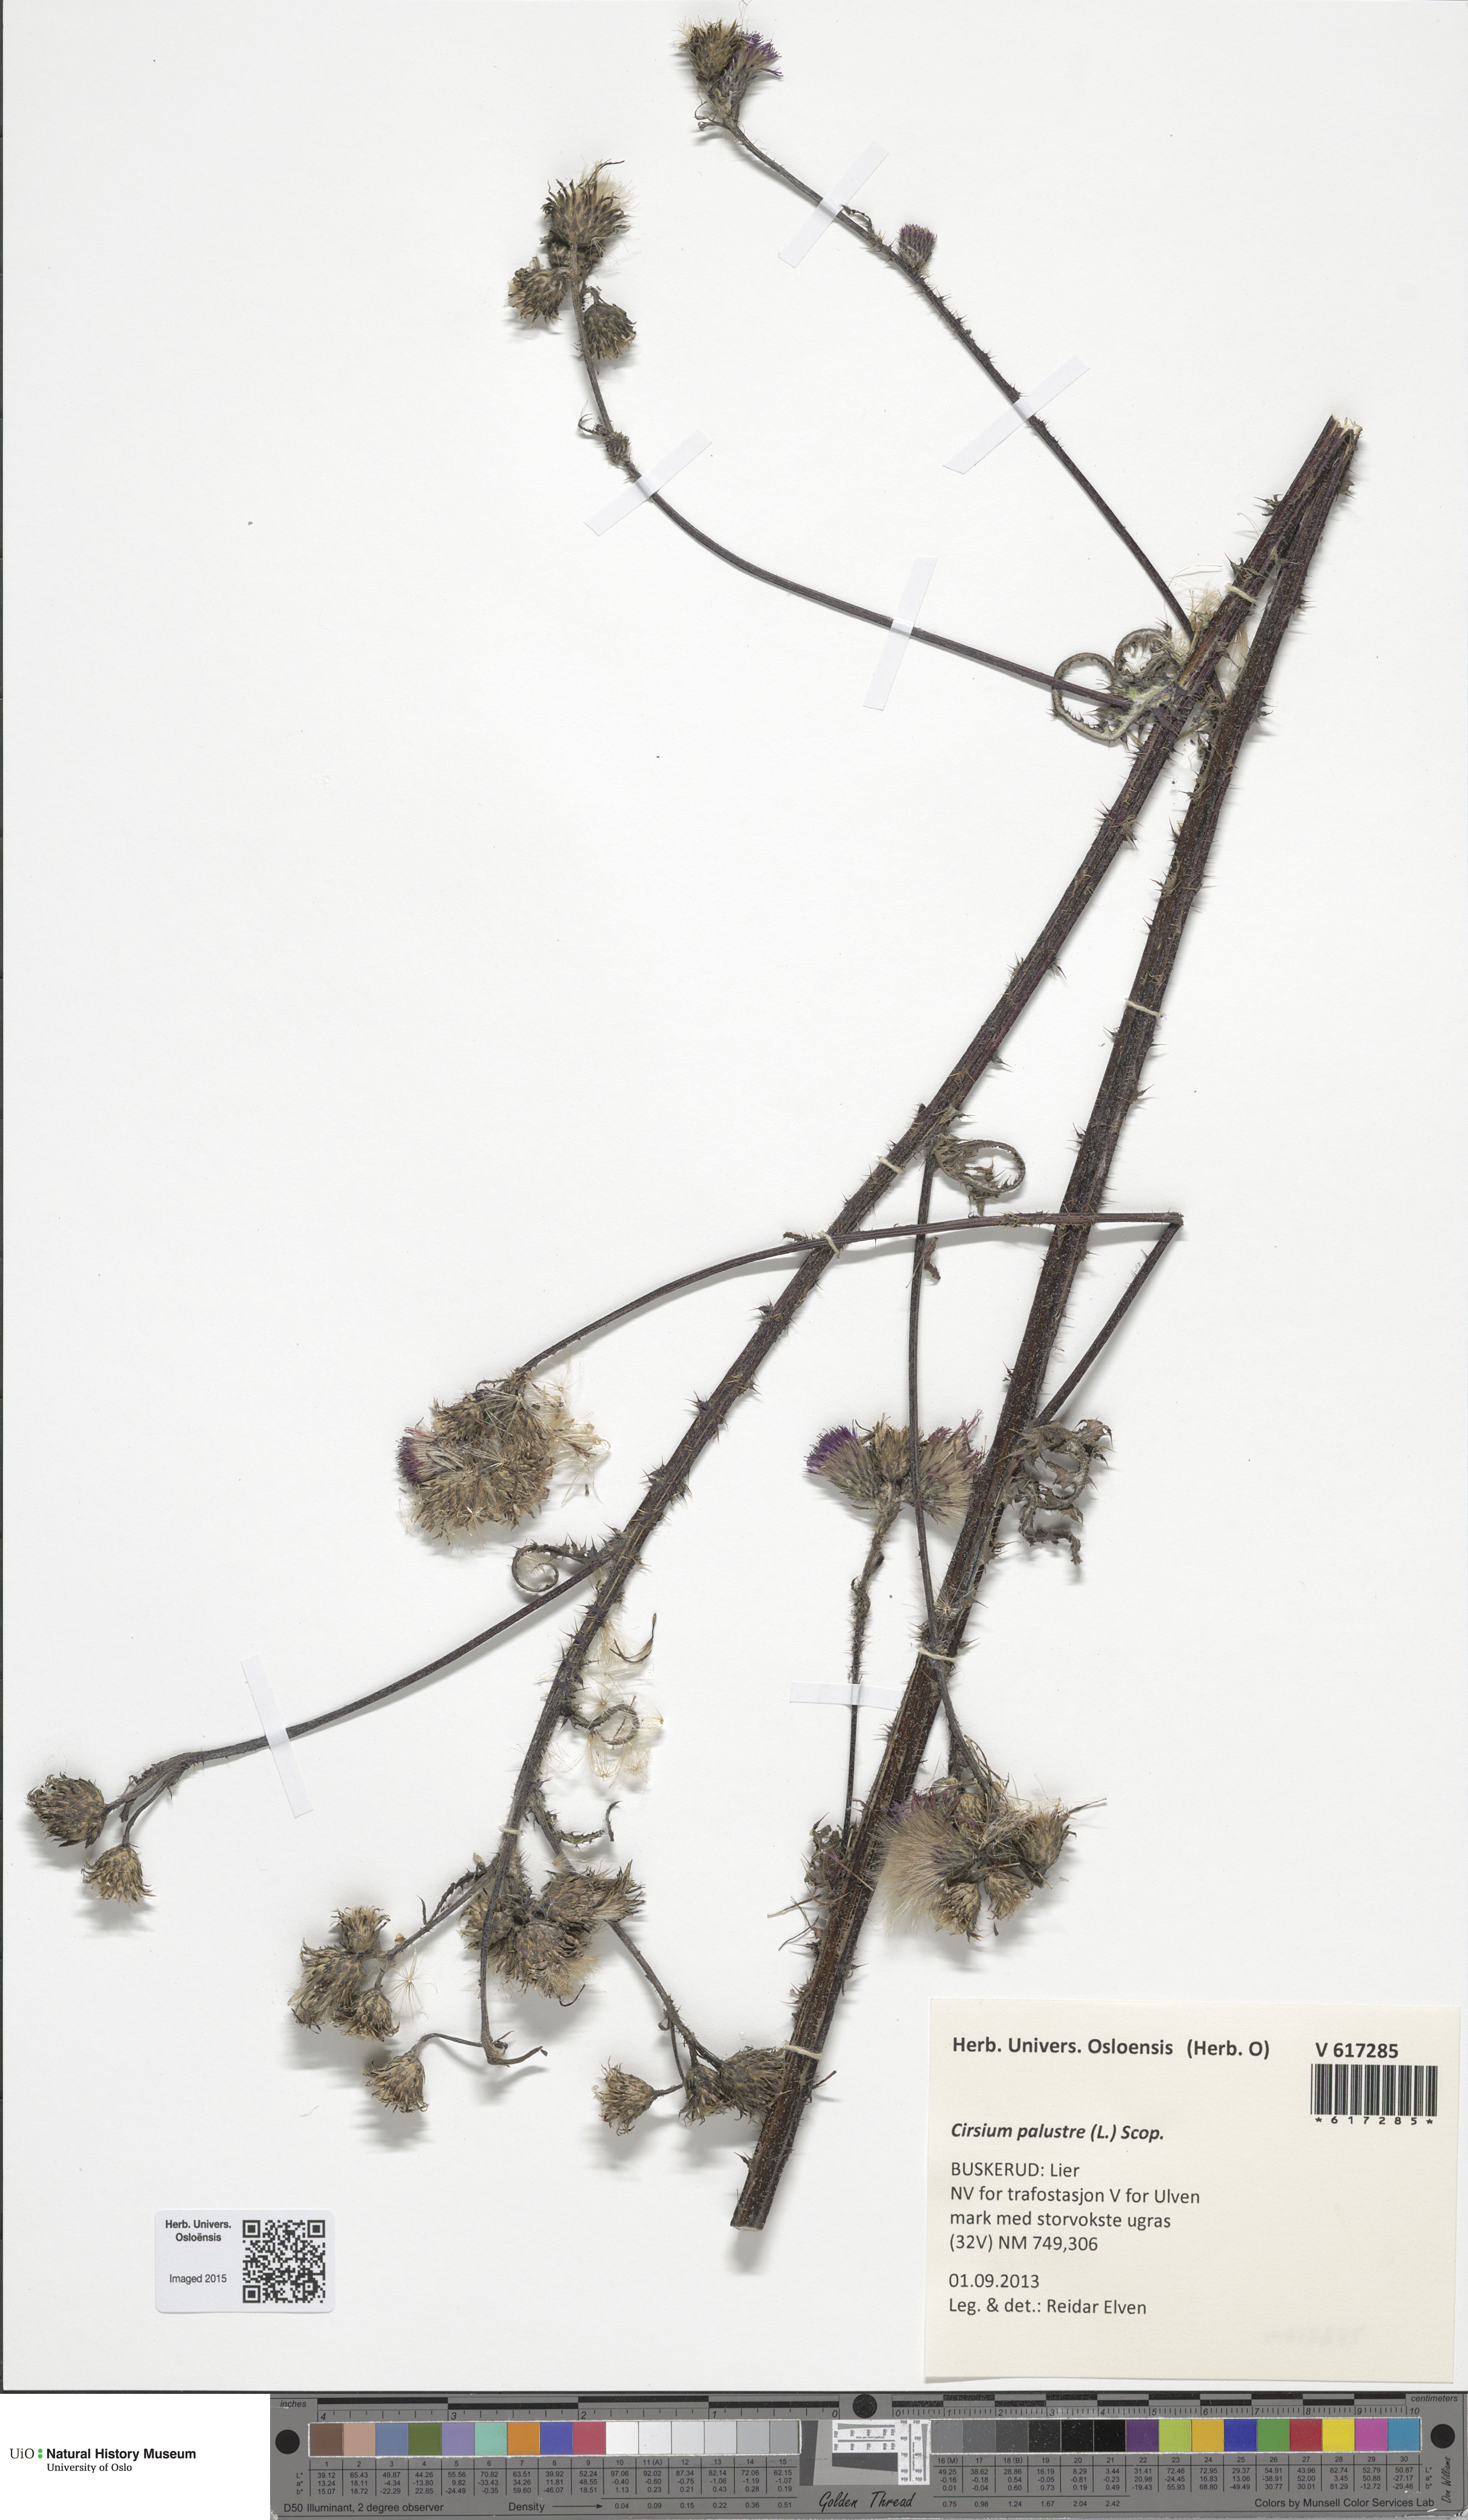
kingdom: Plantae
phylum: Tracheophyta
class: Magnoliopsida
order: Asterales
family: Asteraceae
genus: Cirsium
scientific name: Cirsium palustre
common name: Marsh thistle
